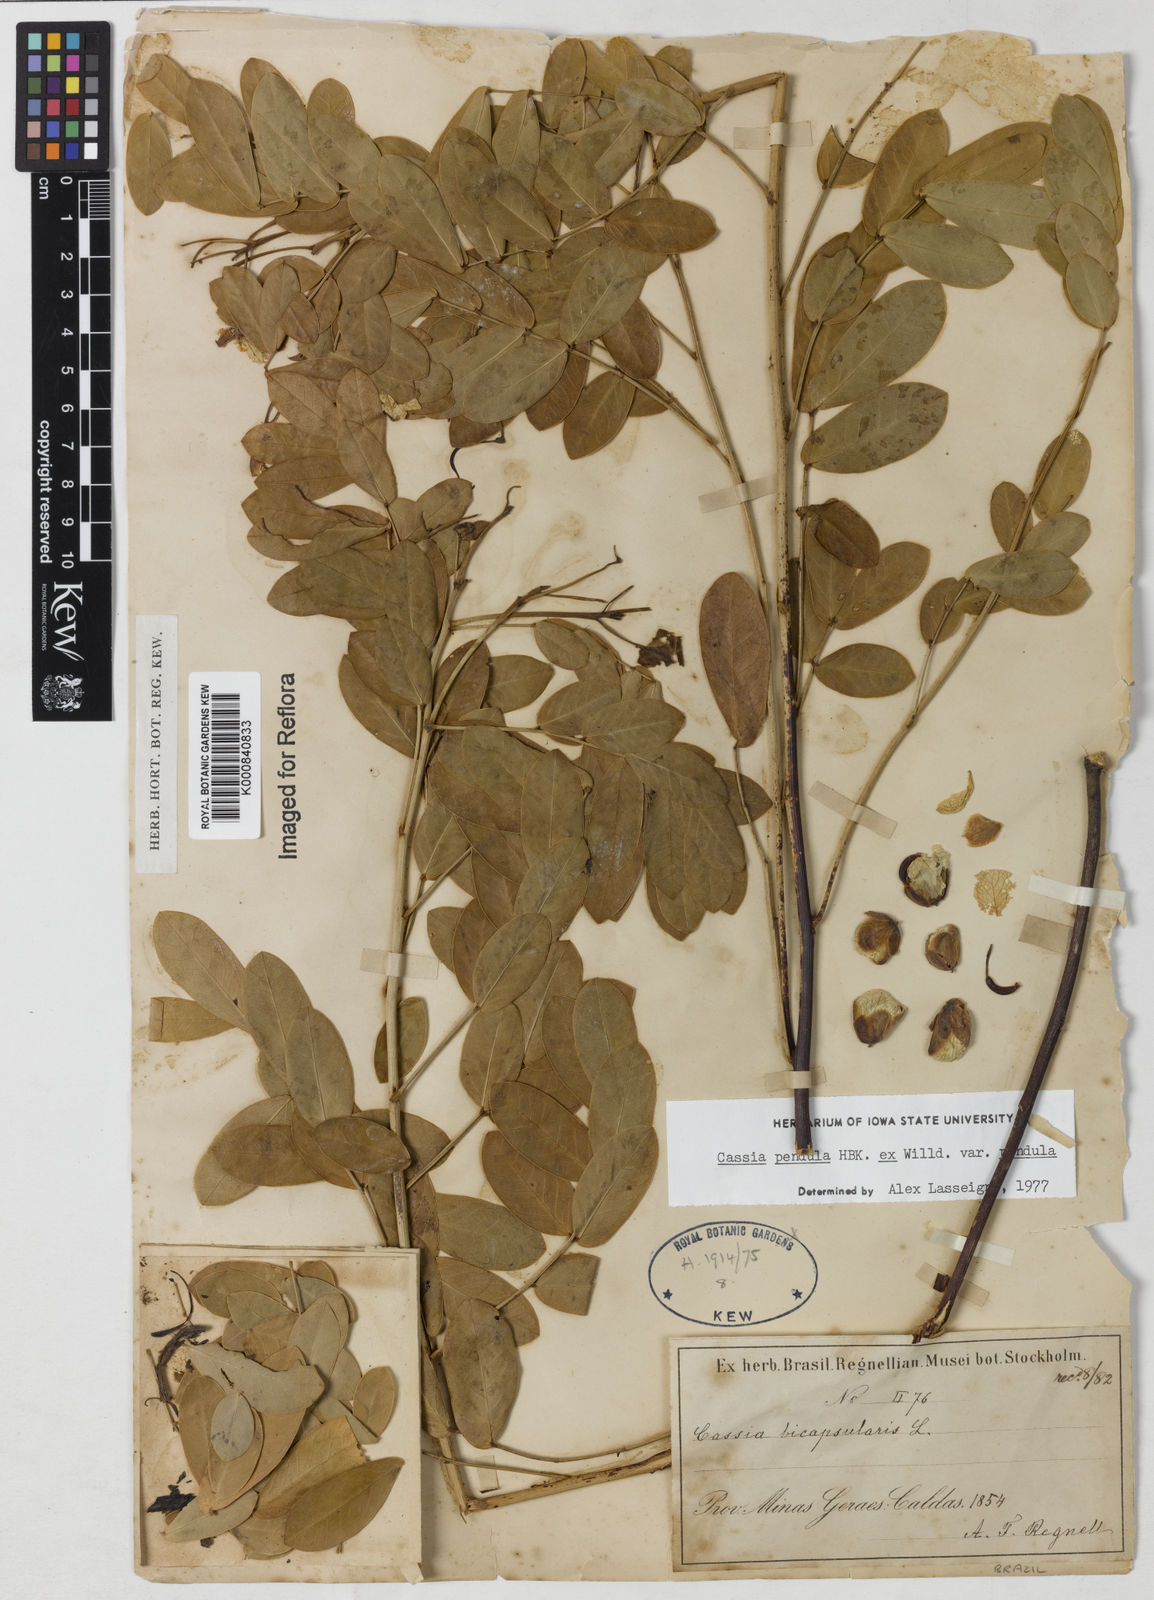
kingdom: Plantae
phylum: Tracheophyta
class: Magnoliopsida
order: Fabales
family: Fabaceae
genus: Senna
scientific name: Senna pendula
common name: Easter cassia
